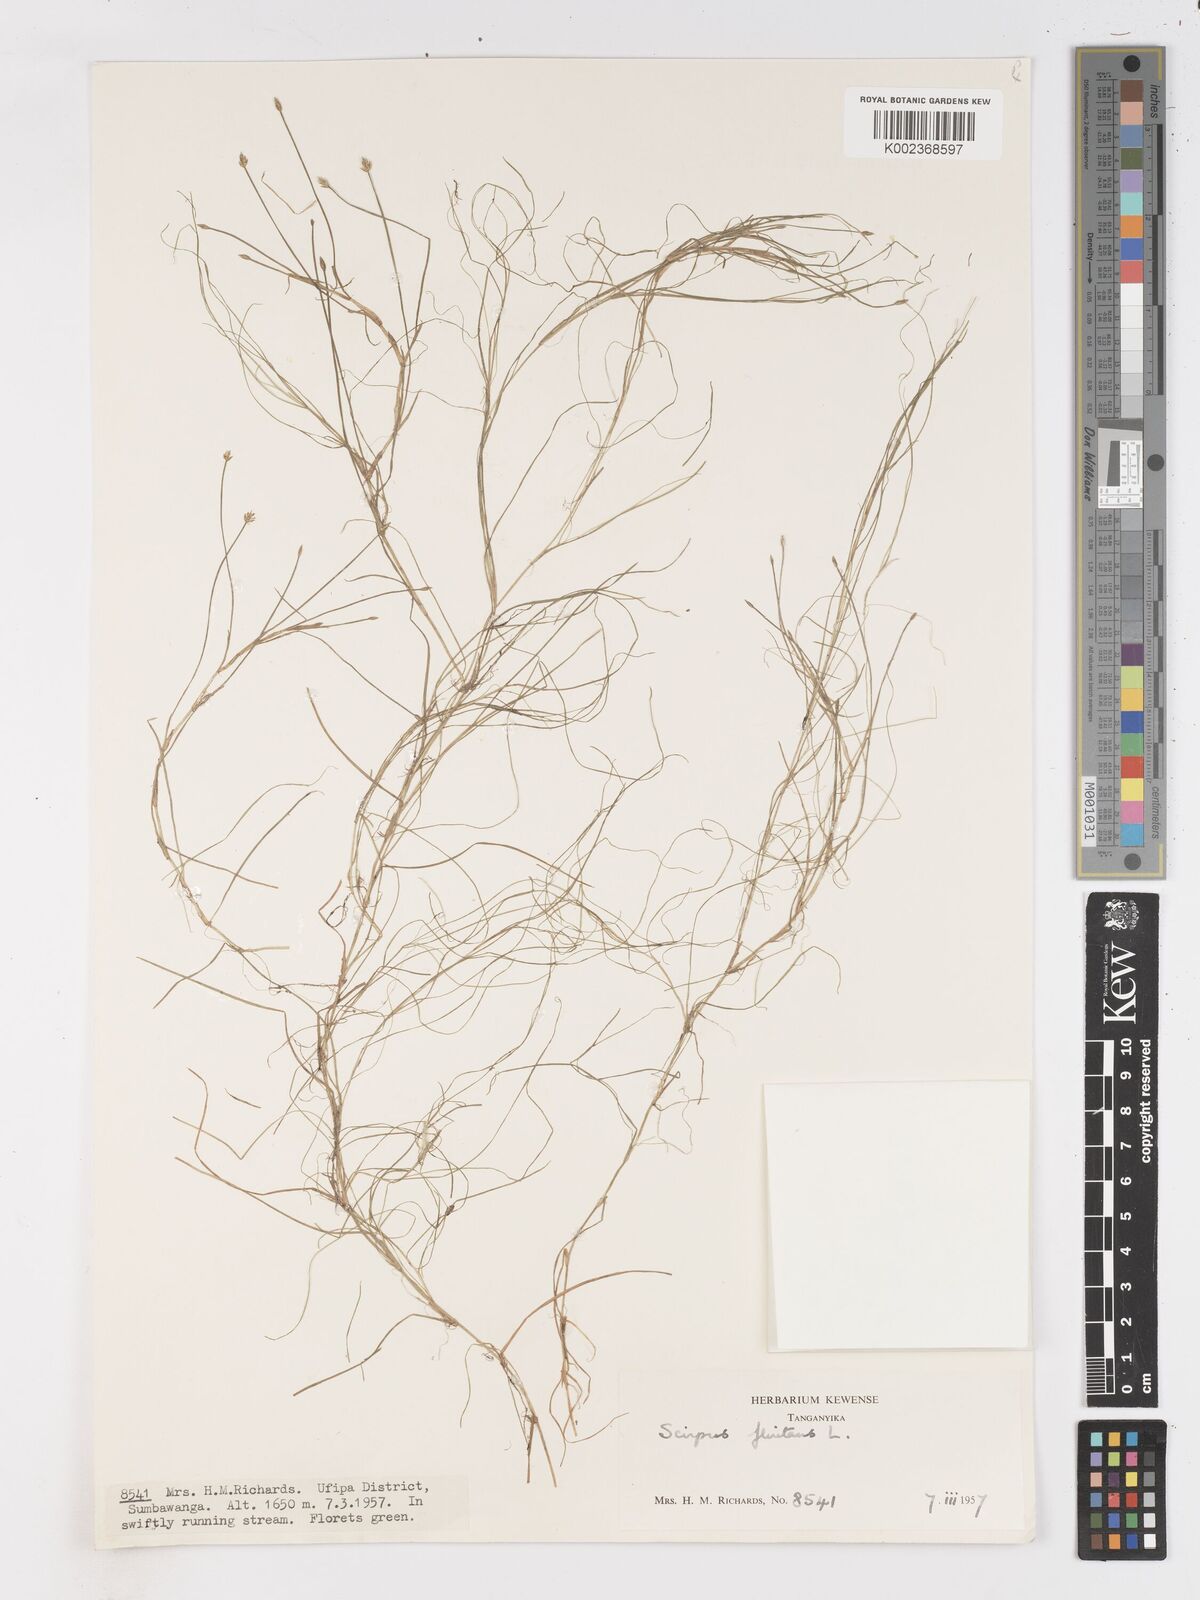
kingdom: Plantae
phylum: Tracheophyta
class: Liliopsida
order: Poales
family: Cyperaceae
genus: Isolepis
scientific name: Isolepis fluitans
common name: Floating club-rush
